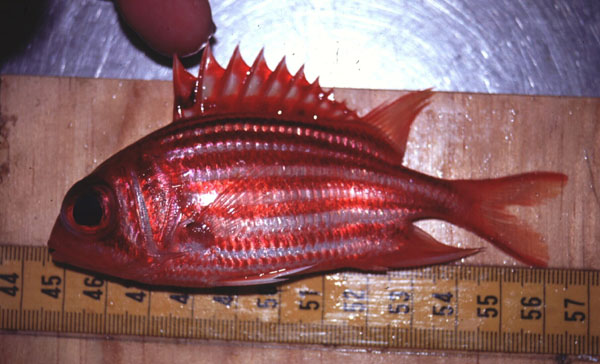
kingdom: Animalia
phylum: Chordata
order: Beryciformes
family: Holocentridae
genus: Sargocentron
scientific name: Sargocentron diadema
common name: Crown squirrelfish
